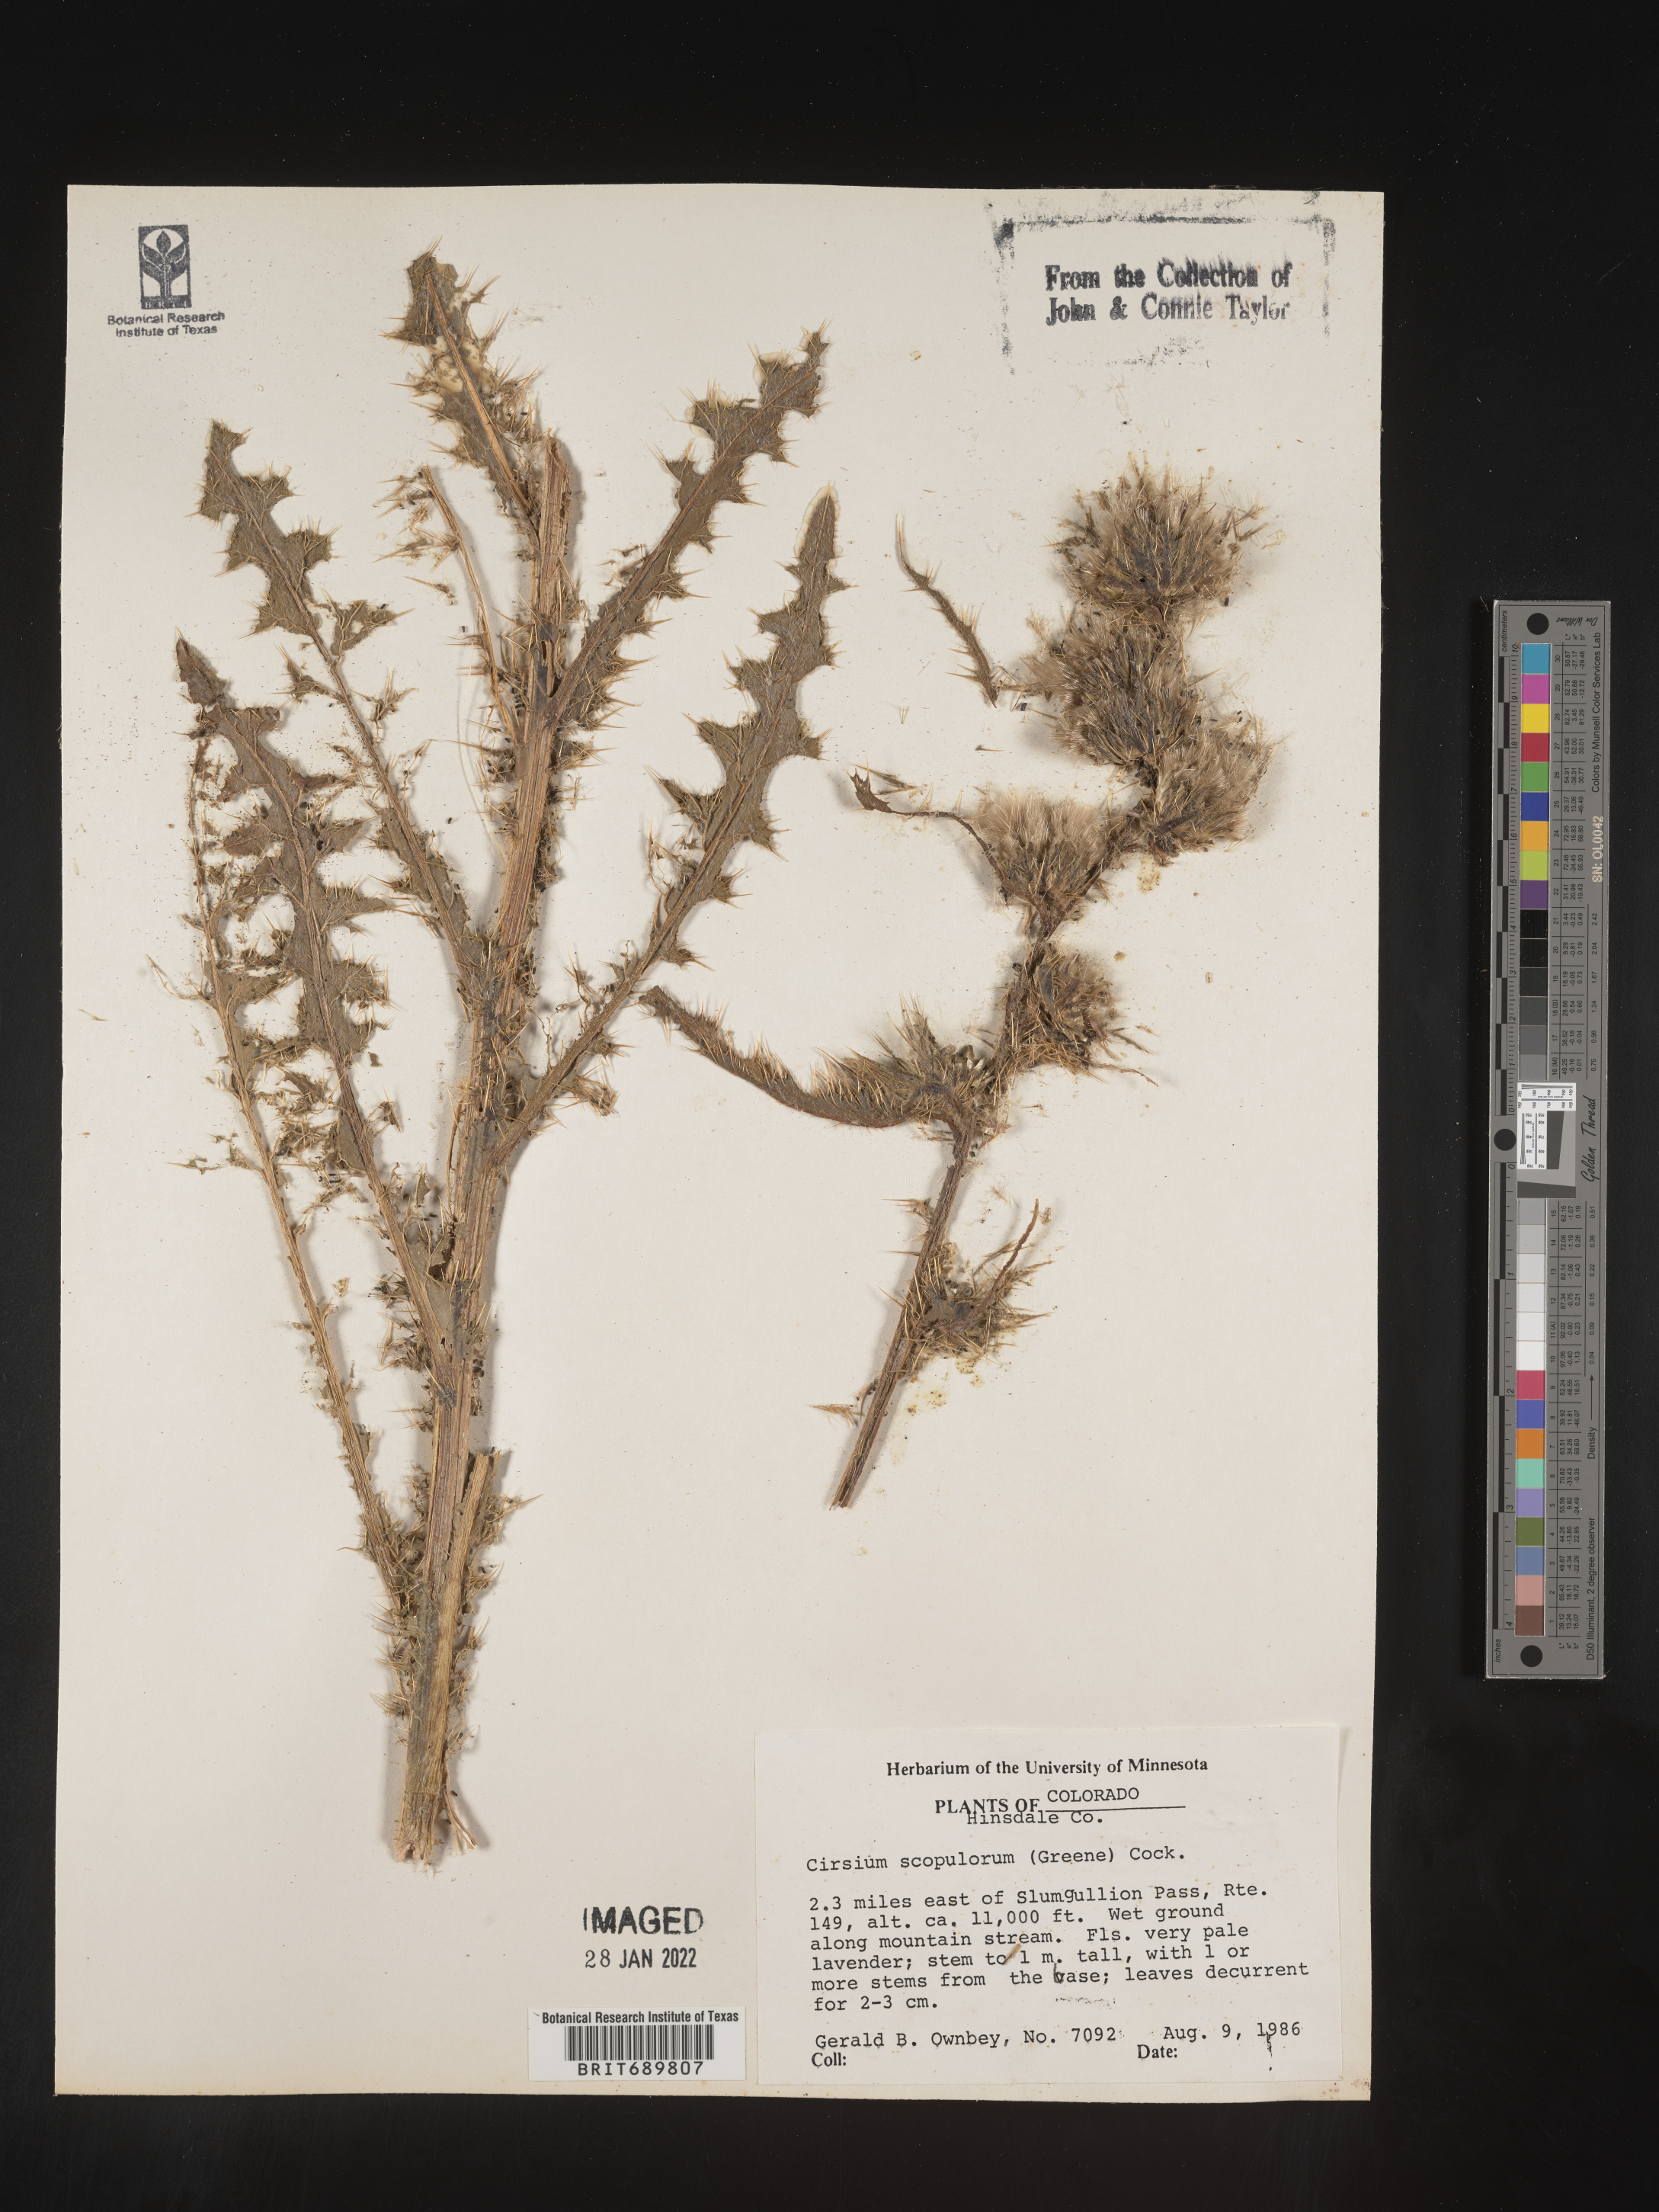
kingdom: Plantae
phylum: Tracheophyta
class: Magnoliopsida
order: Asterales
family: Asteraceae
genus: Cirsium
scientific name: Cirsium scopulorum
